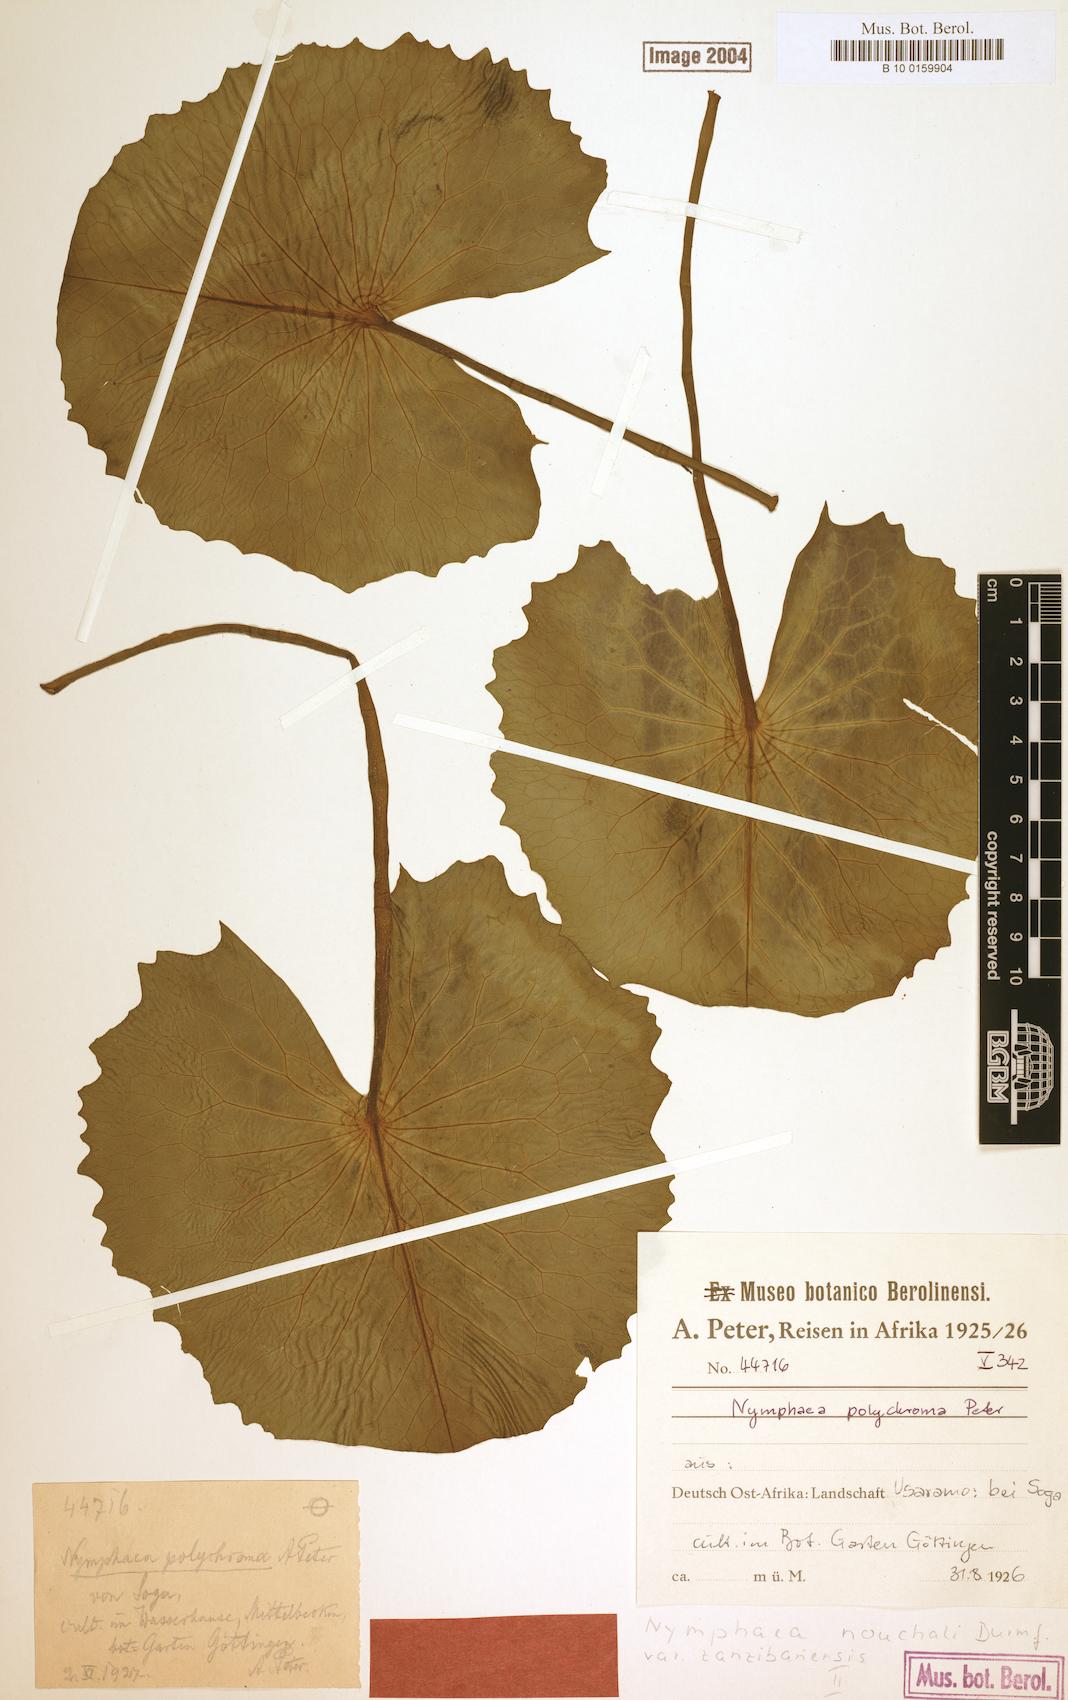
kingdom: Plantae
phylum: Tracheophyta
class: Magnoliopsida
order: Nymphaeales
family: Nymphaeaceae
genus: Nymphaea
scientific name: Nymphaea nouchali
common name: Blue lotus
